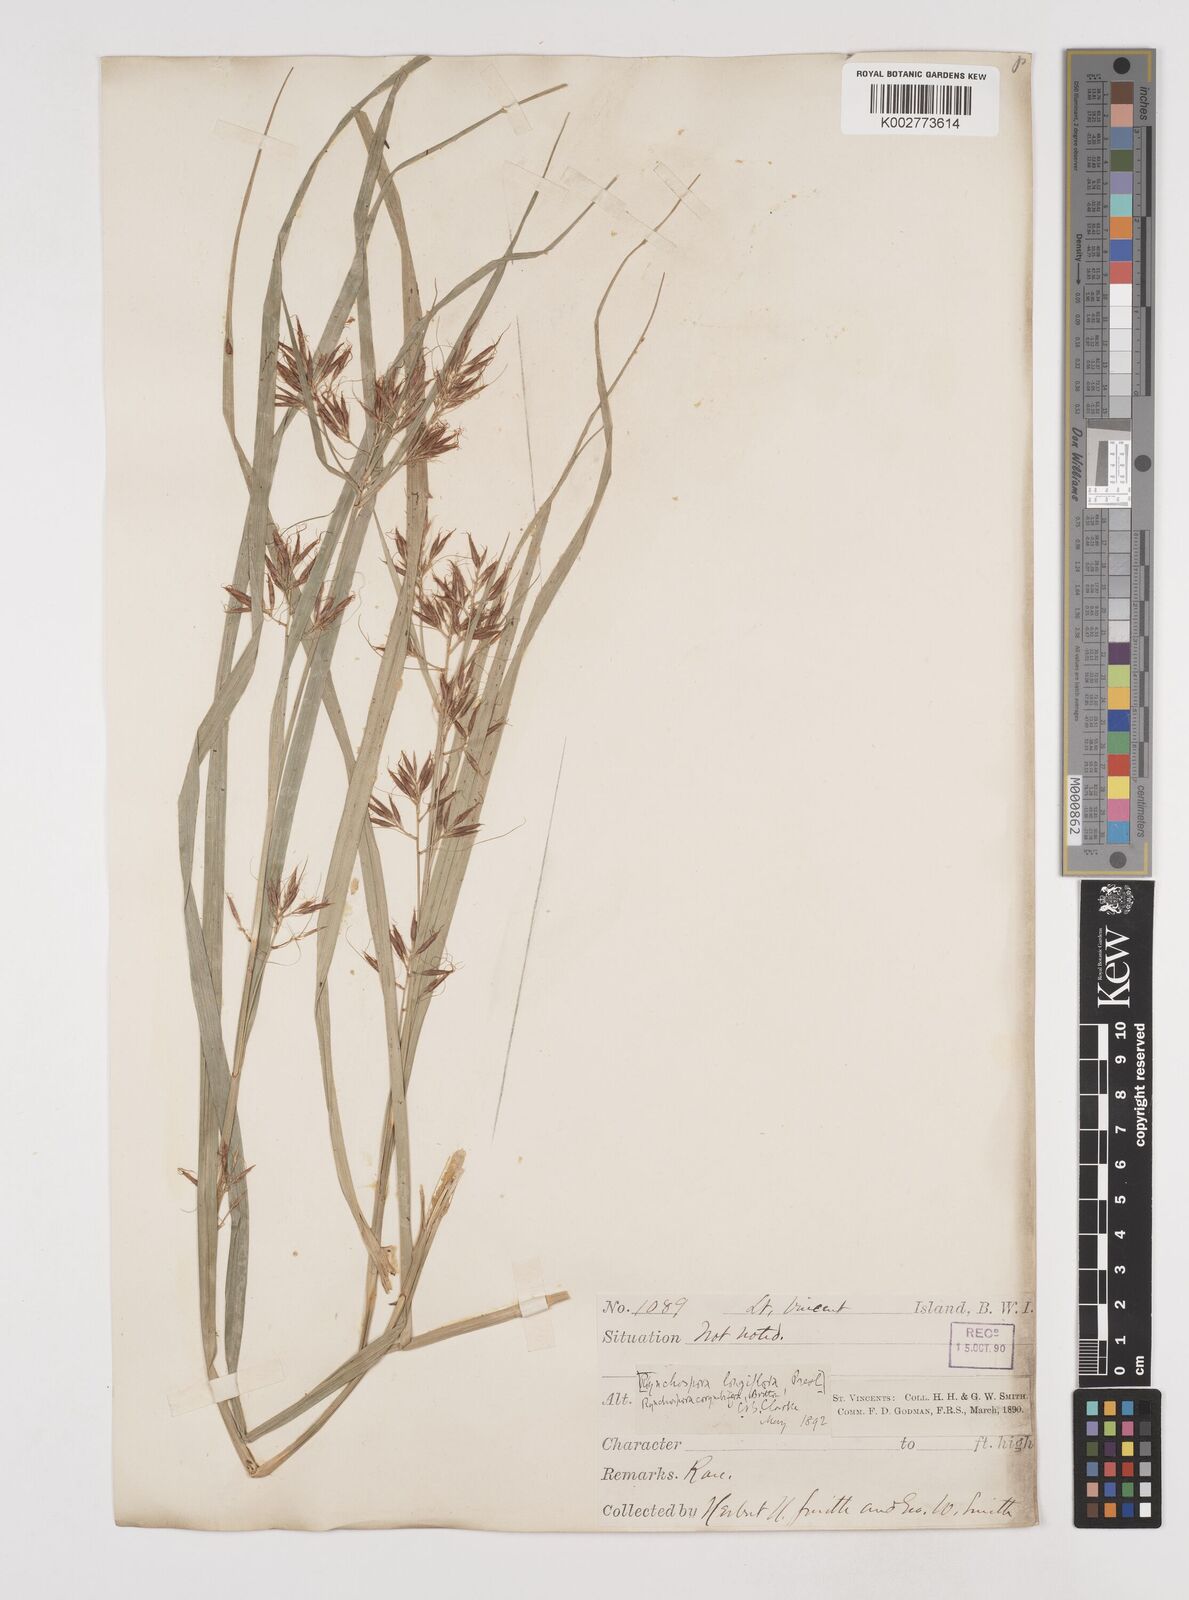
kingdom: Plantae
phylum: Tracheophyta
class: Liliopsida
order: Poales
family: Cyperaceae
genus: Rhynchospora
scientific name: Rhynchospora longiflora
